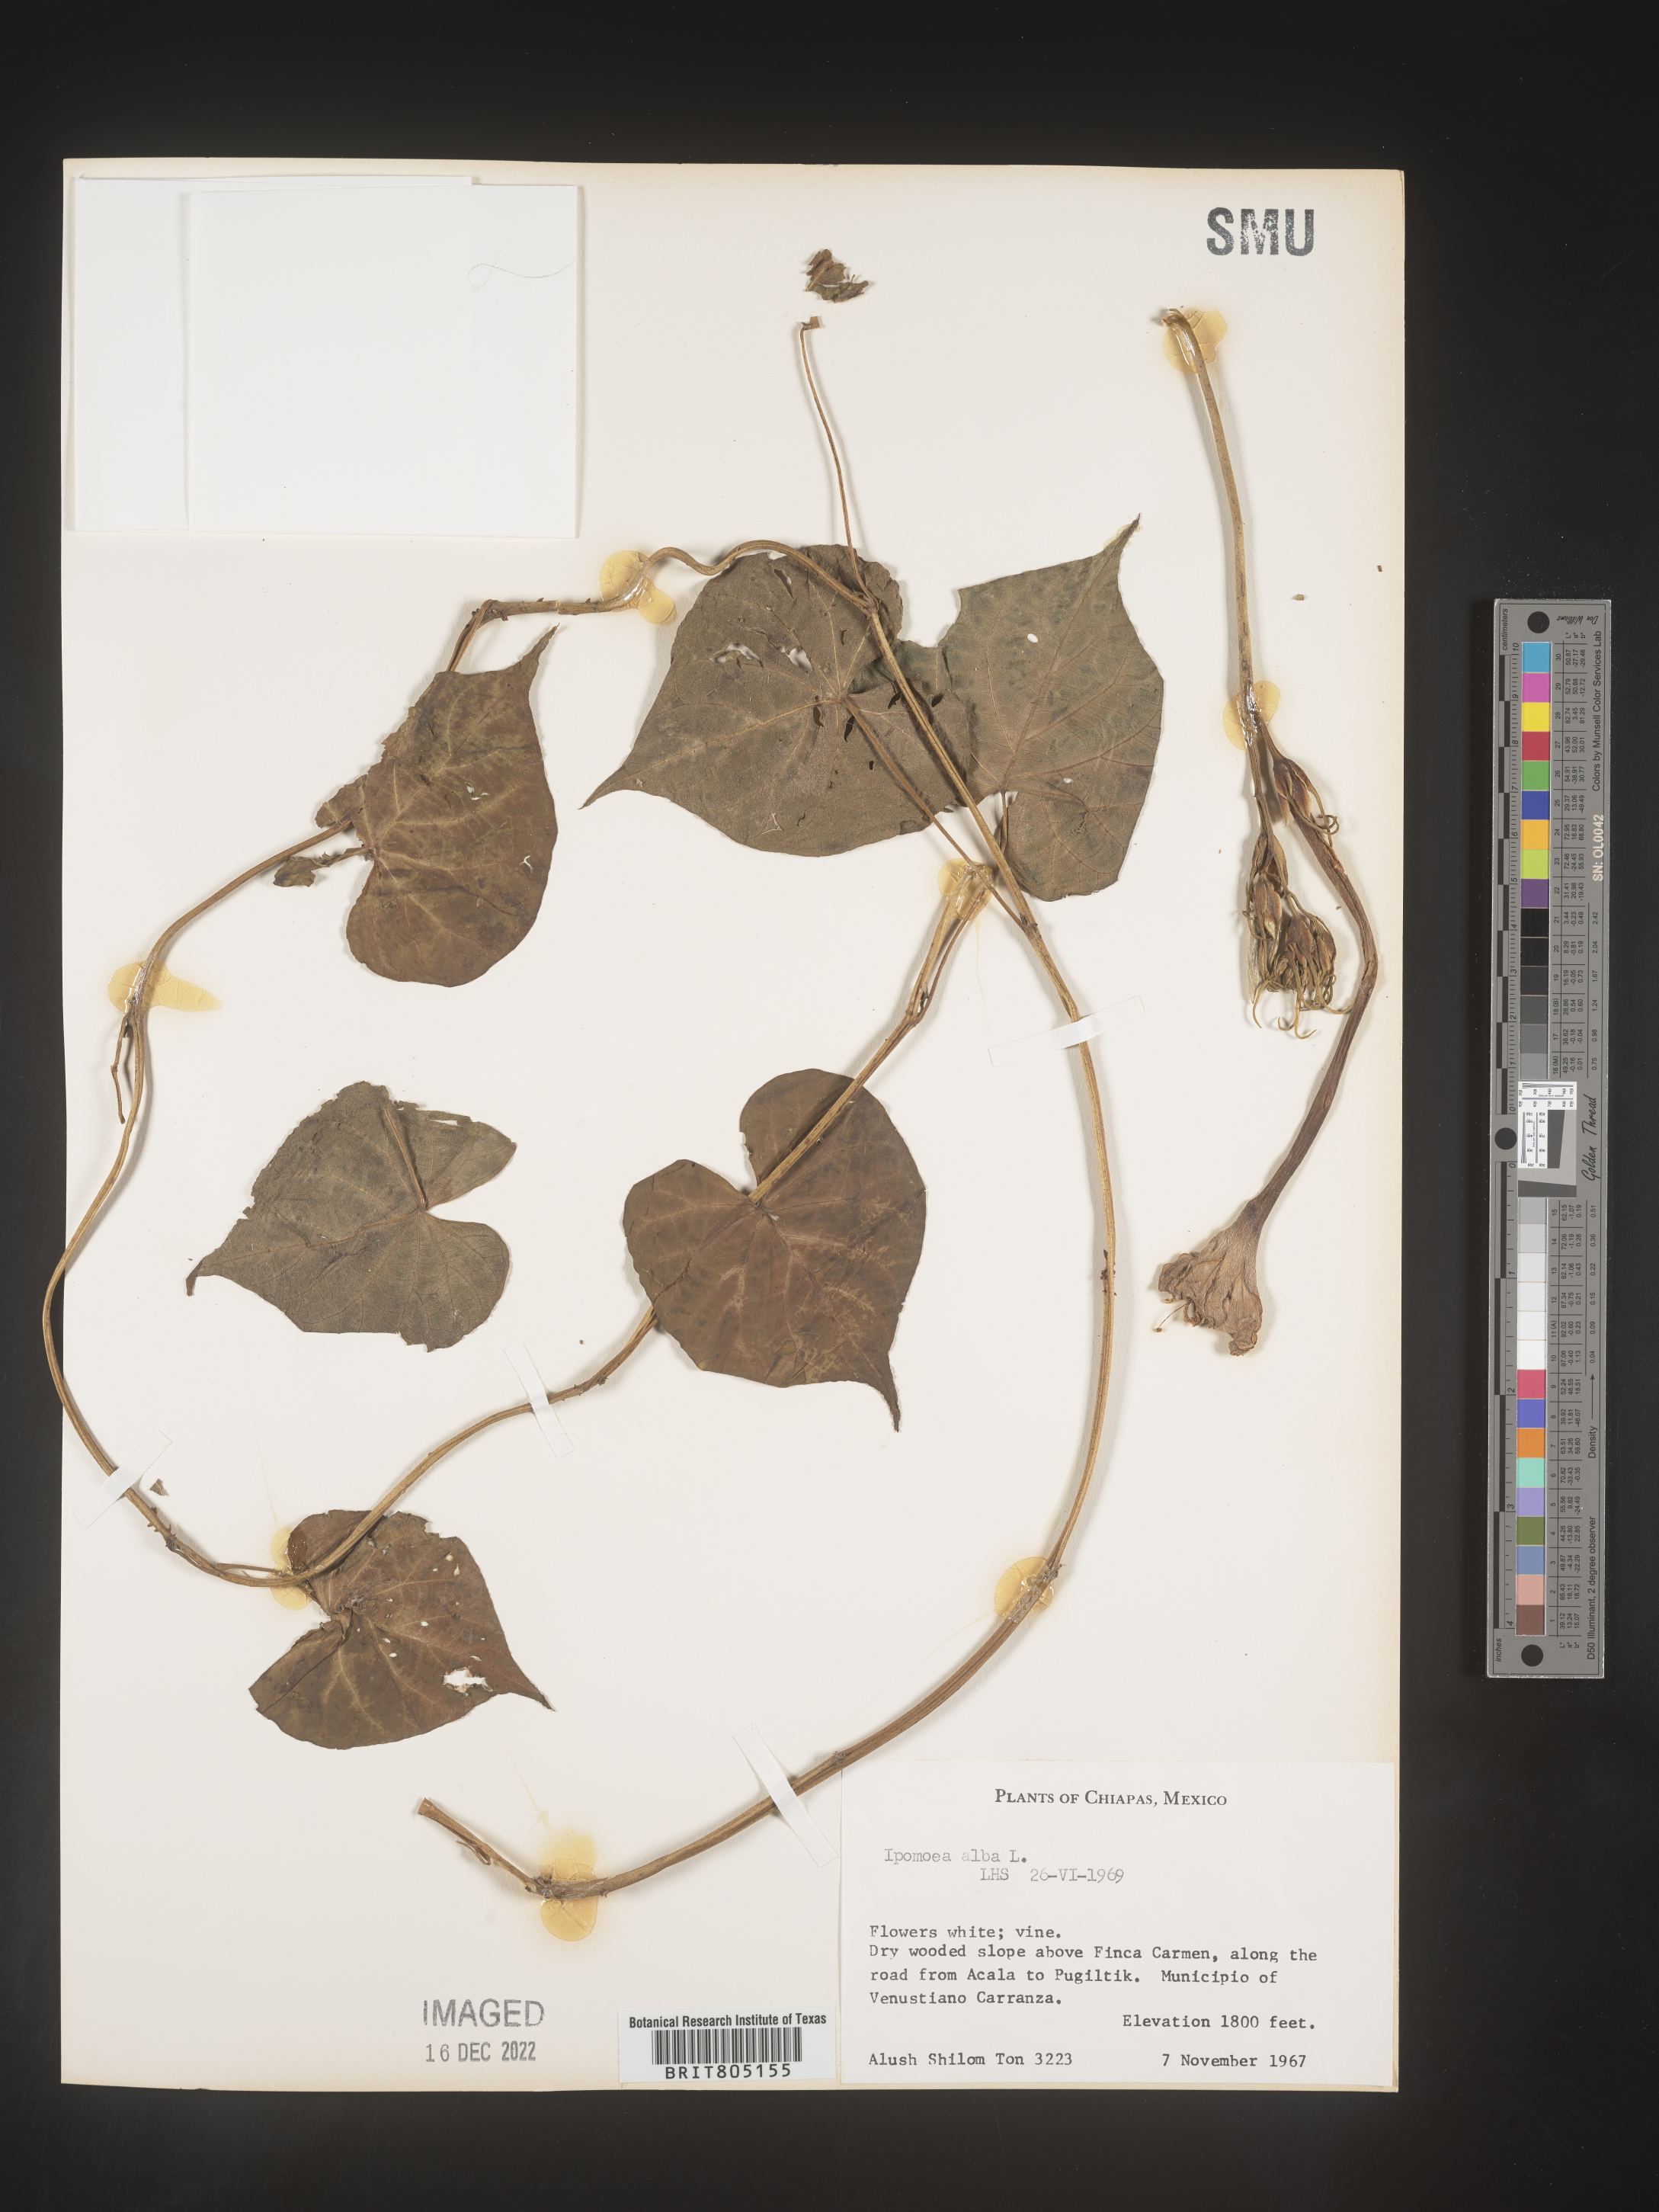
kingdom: Plantae
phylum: Tracheophyta
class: Magnoliopsida
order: Solanales
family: Convolvulaceae
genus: Ipomoea
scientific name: Ipomoea
